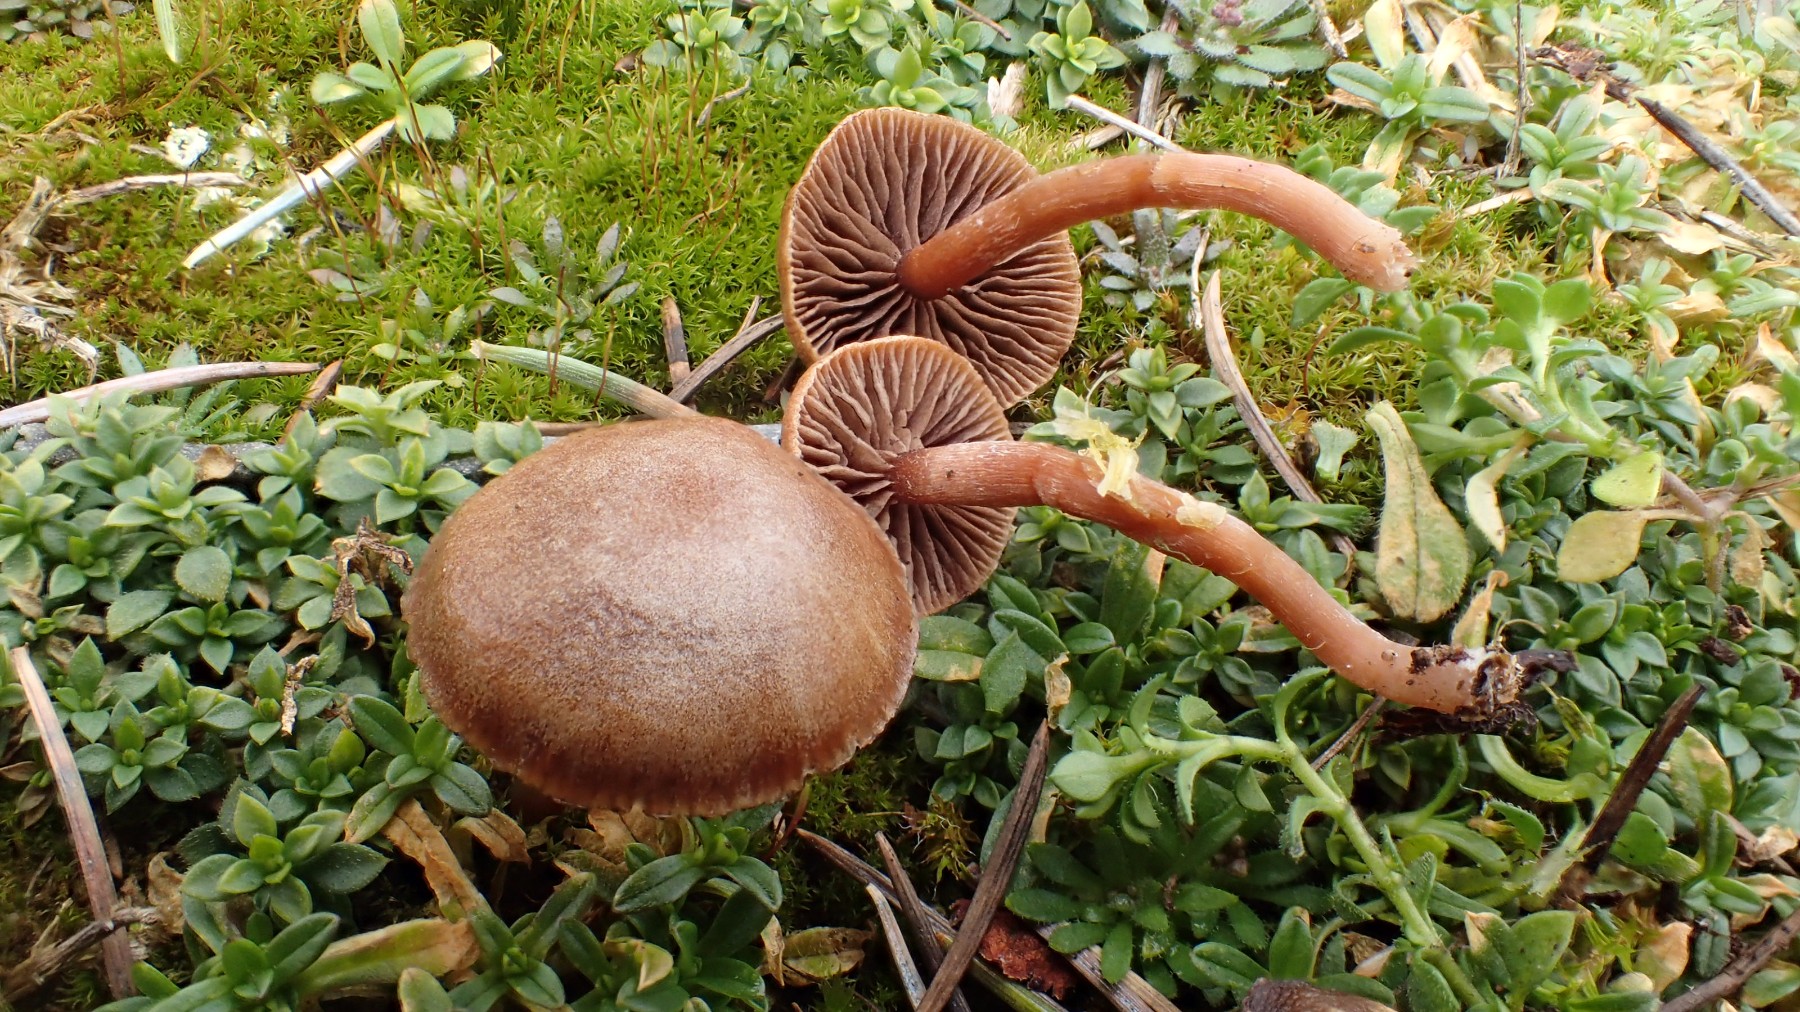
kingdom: Fungi
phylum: Basidiomycota
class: Agaricomycetes
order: Agaricales
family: Strophariaceae
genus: Deconica
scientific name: Deconica montana
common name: rødbrun stråhat
